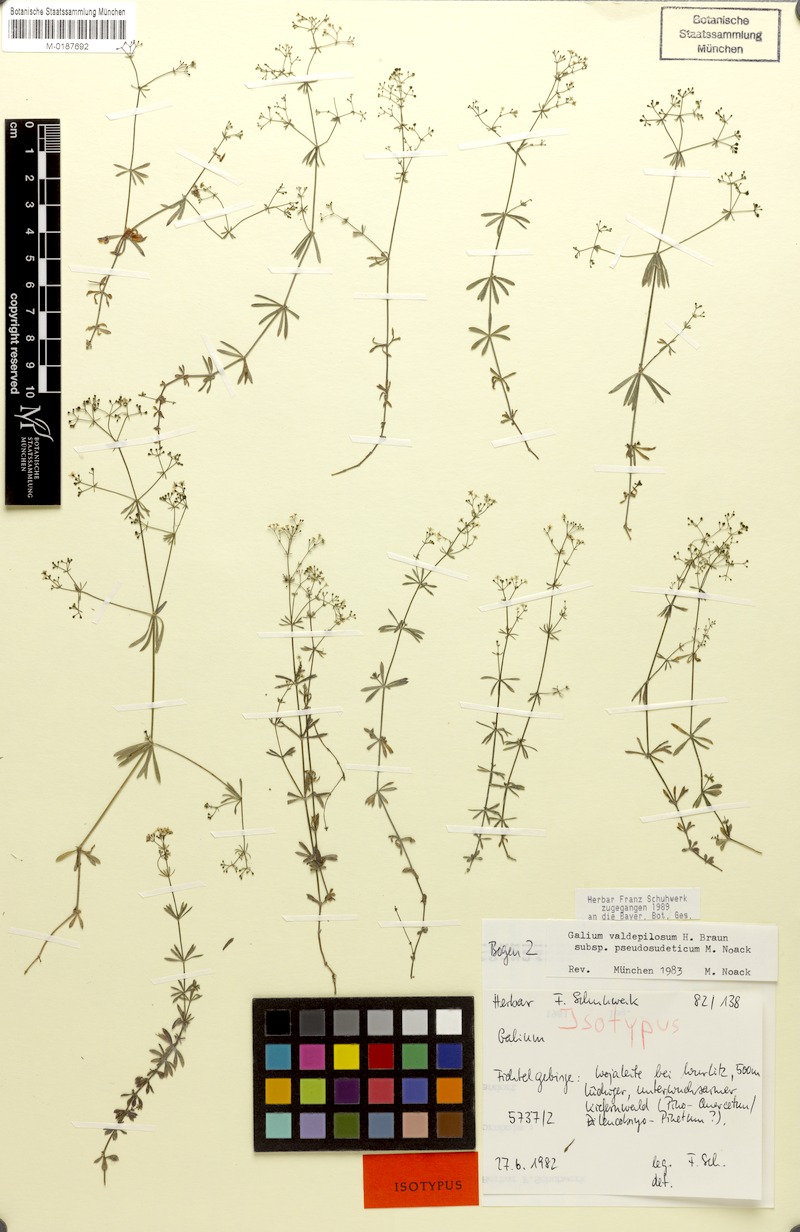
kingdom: Plantae
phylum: Tracheophyta
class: Magnoliopsida
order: Gentianales
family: Rubiaceae
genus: Galium
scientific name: Galium valdepilosum
